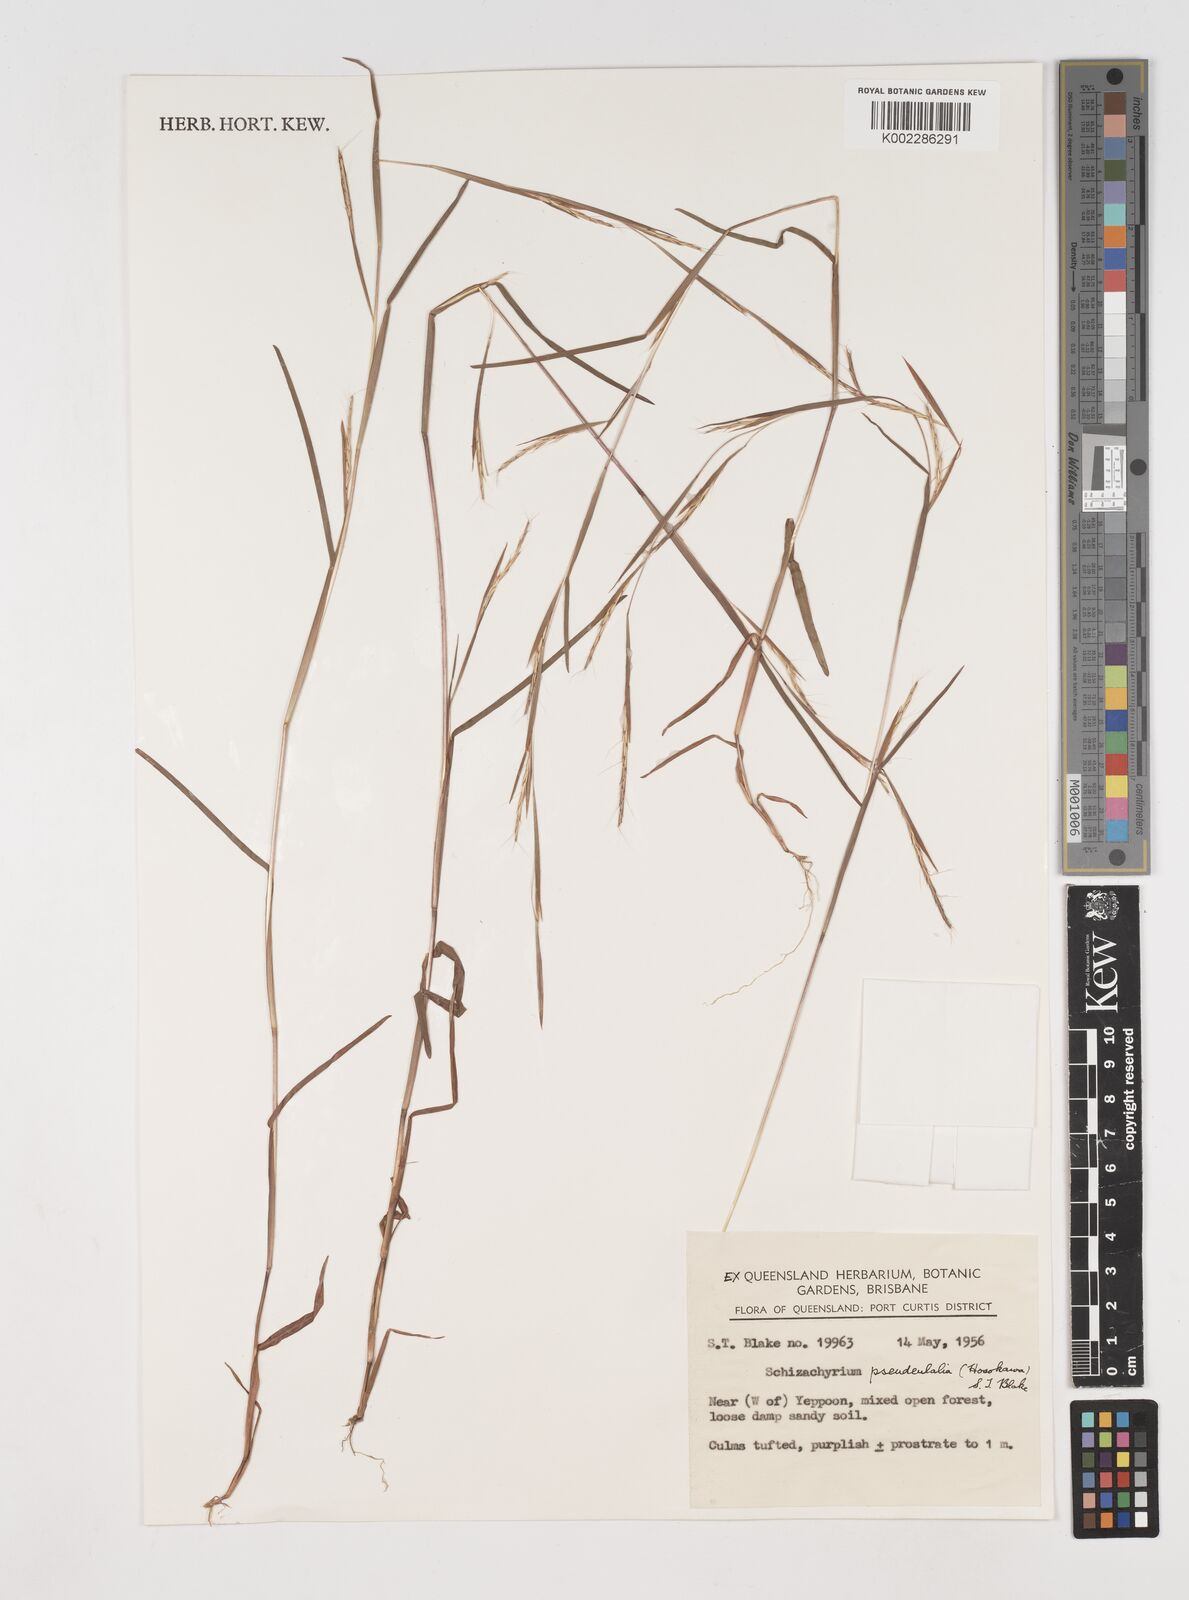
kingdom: Plantae
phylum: Tracheophyta
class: Liliopsida
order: Poales
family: Poaceae
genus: Schizachyrium
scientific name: Schizachyrium pseudeulalia
